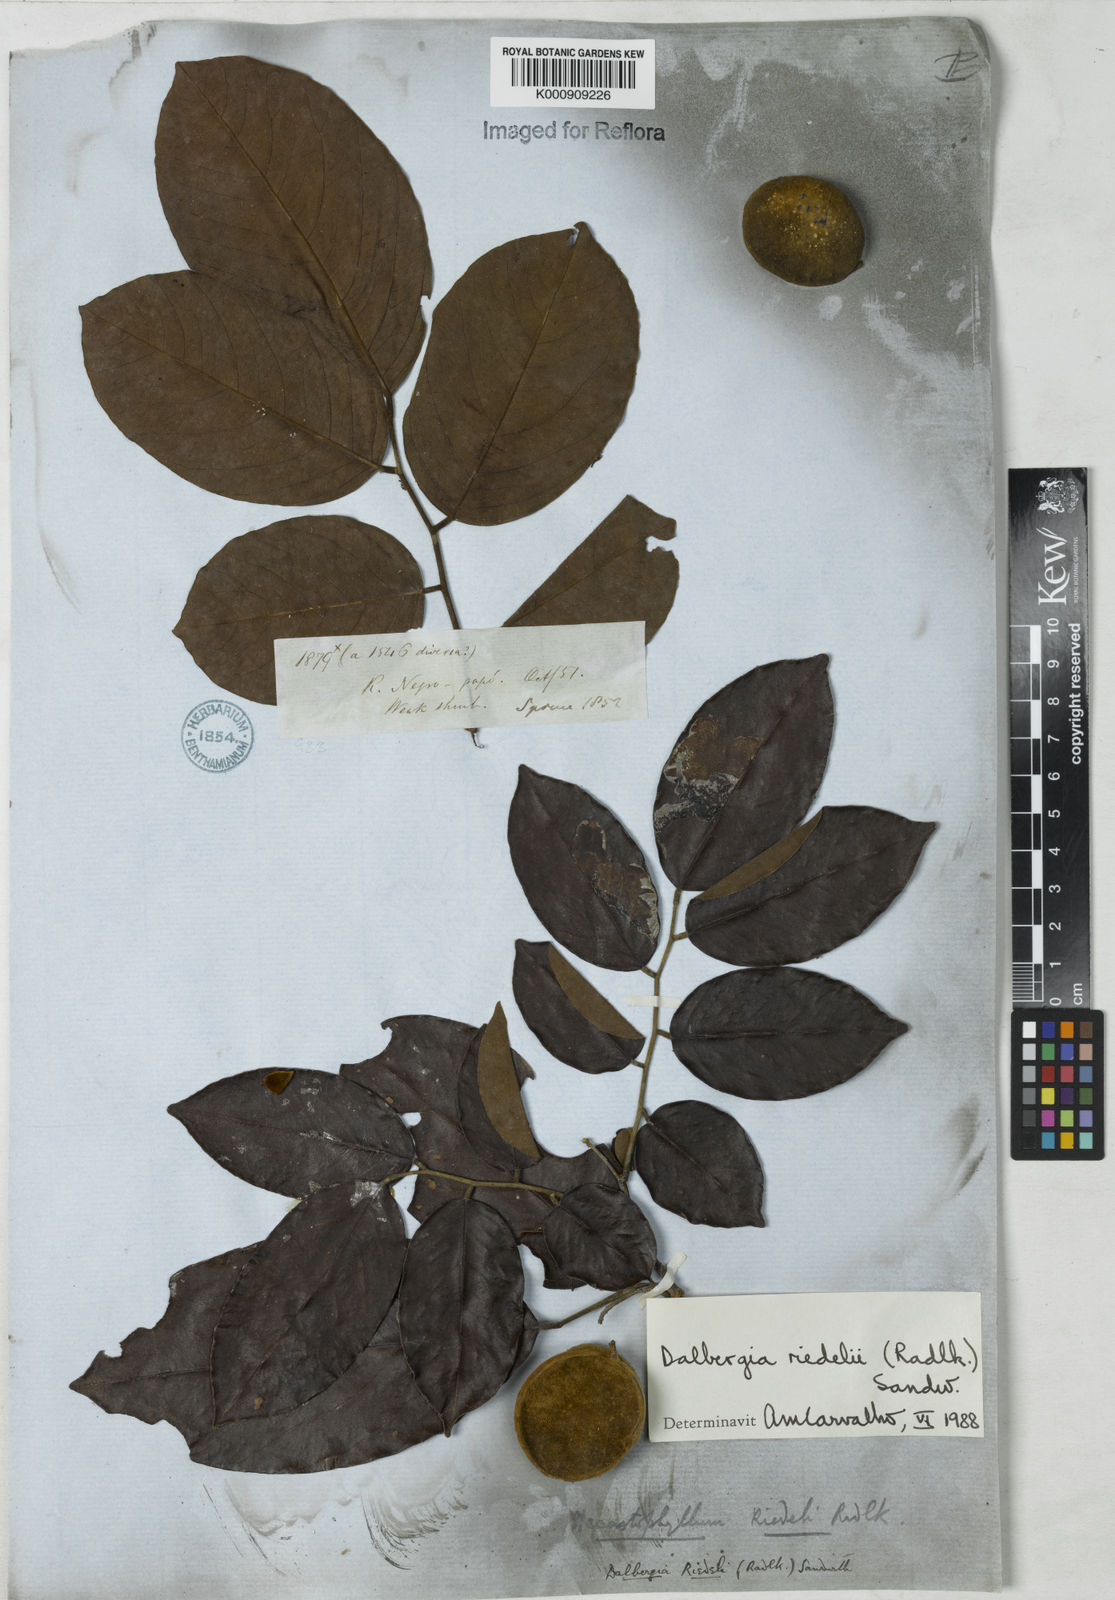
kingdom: Plantae
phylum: Tracheophyta
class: Magnoliopsida
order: Fabales
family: Fabaceae
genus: Dalbergia
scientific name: Dalbergia riedelii
